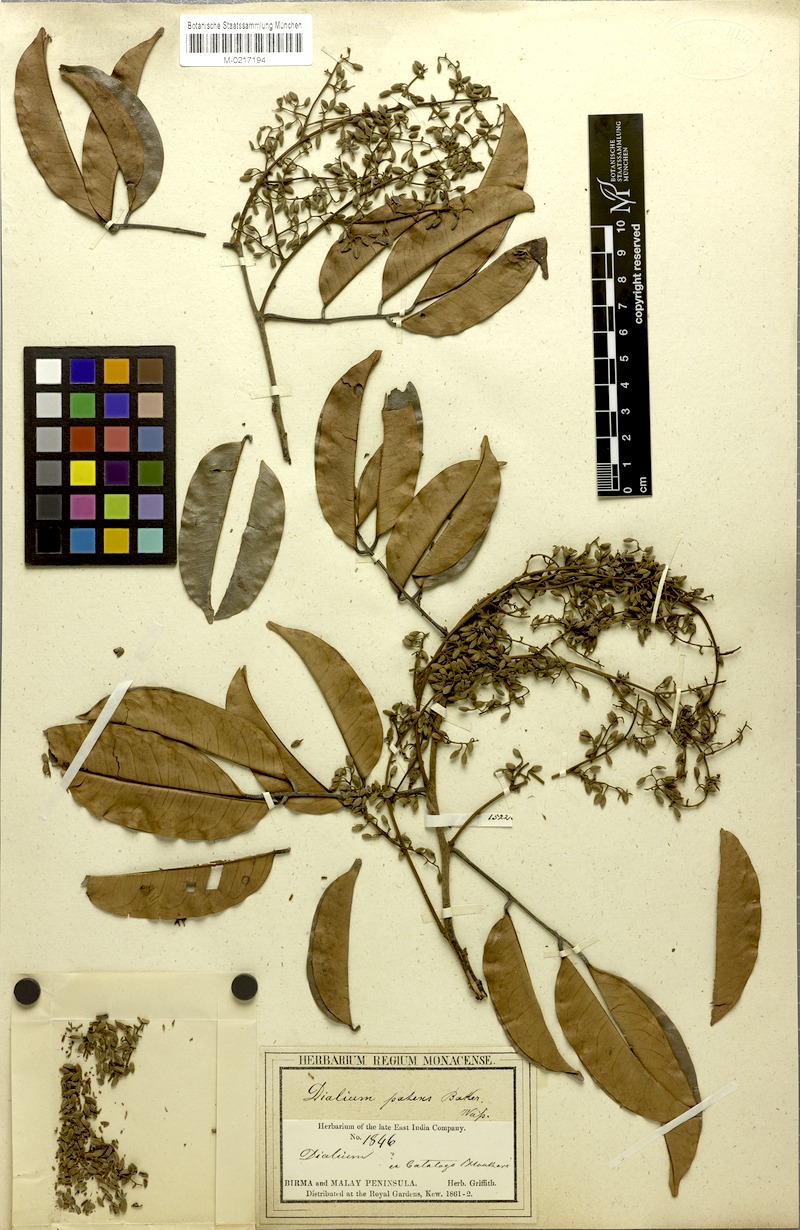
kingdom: Plantae
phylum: Tracheophyta
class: Magnoliopsida
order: Fabales
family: Fabaceae
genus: Dialium
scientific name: Dialium indum
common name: Tamarind-plum
